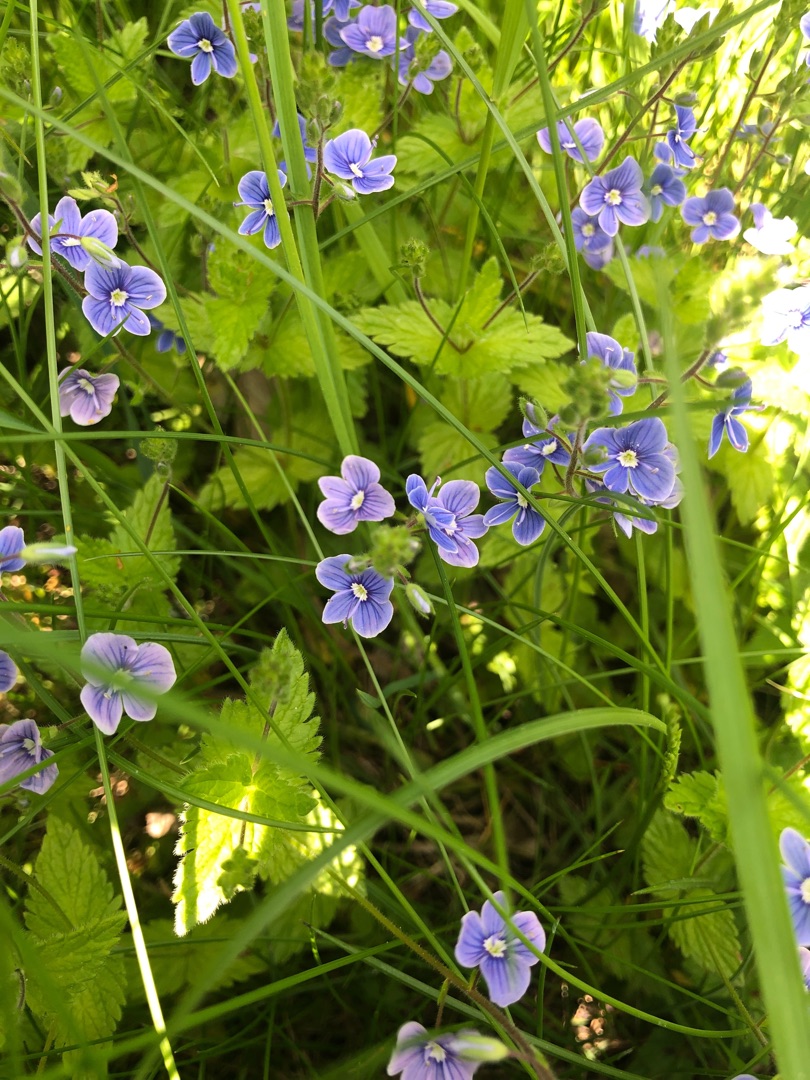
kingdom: Plantae
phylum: Tracheophyta
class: Magnoliopsida
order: Lamiales
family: Plantaginaceae
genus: Veronica
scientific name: Veronica chamaedrys
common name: Tveskægget ærenpris
